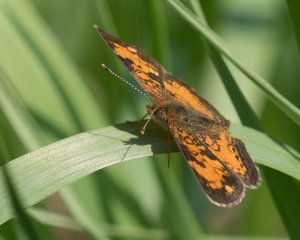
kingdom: Animalia
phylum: Arthropoda
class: Insecta
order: Lepidoptera
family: Nymphalidae
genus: Phyciodes
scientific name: Phyciodes tharos
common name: Northern Crescent
